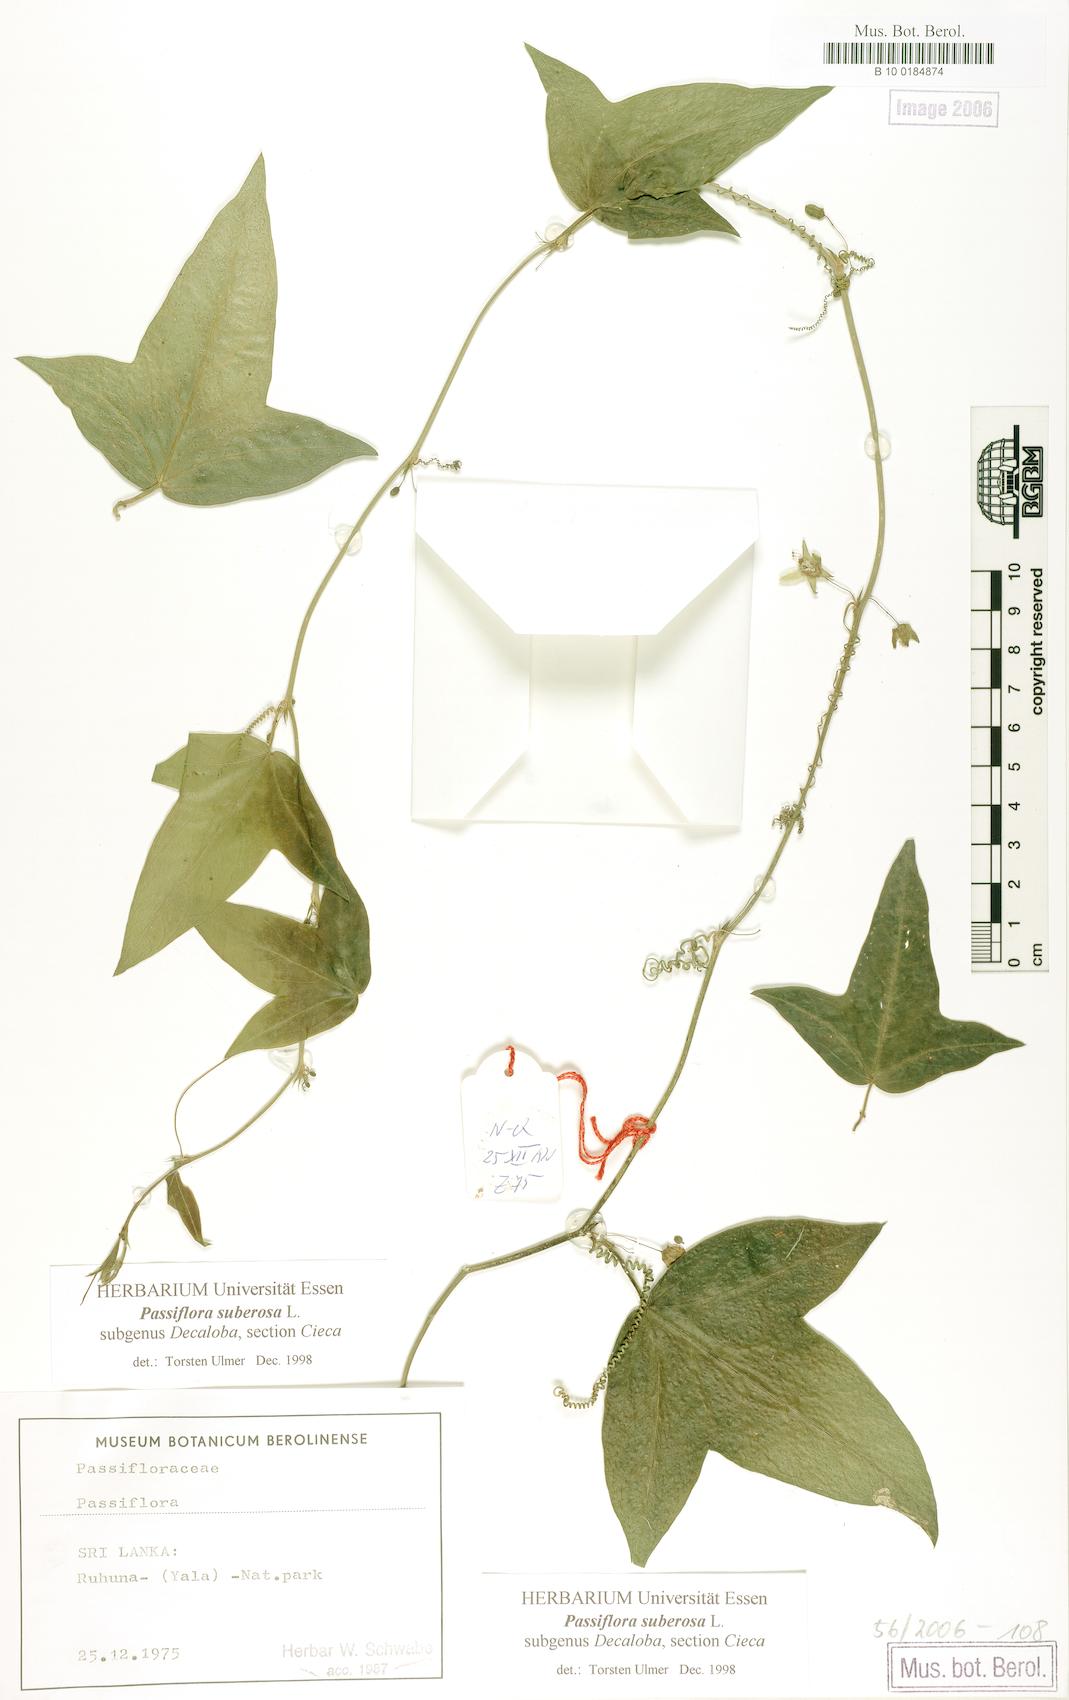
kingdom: Plantae
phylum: Tracheophyta
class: Magnoliopsida
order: Malpighiales
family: Passifloraceae
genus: Passiflora
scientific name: Passiflora suberosa
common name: Wild passionfruit
